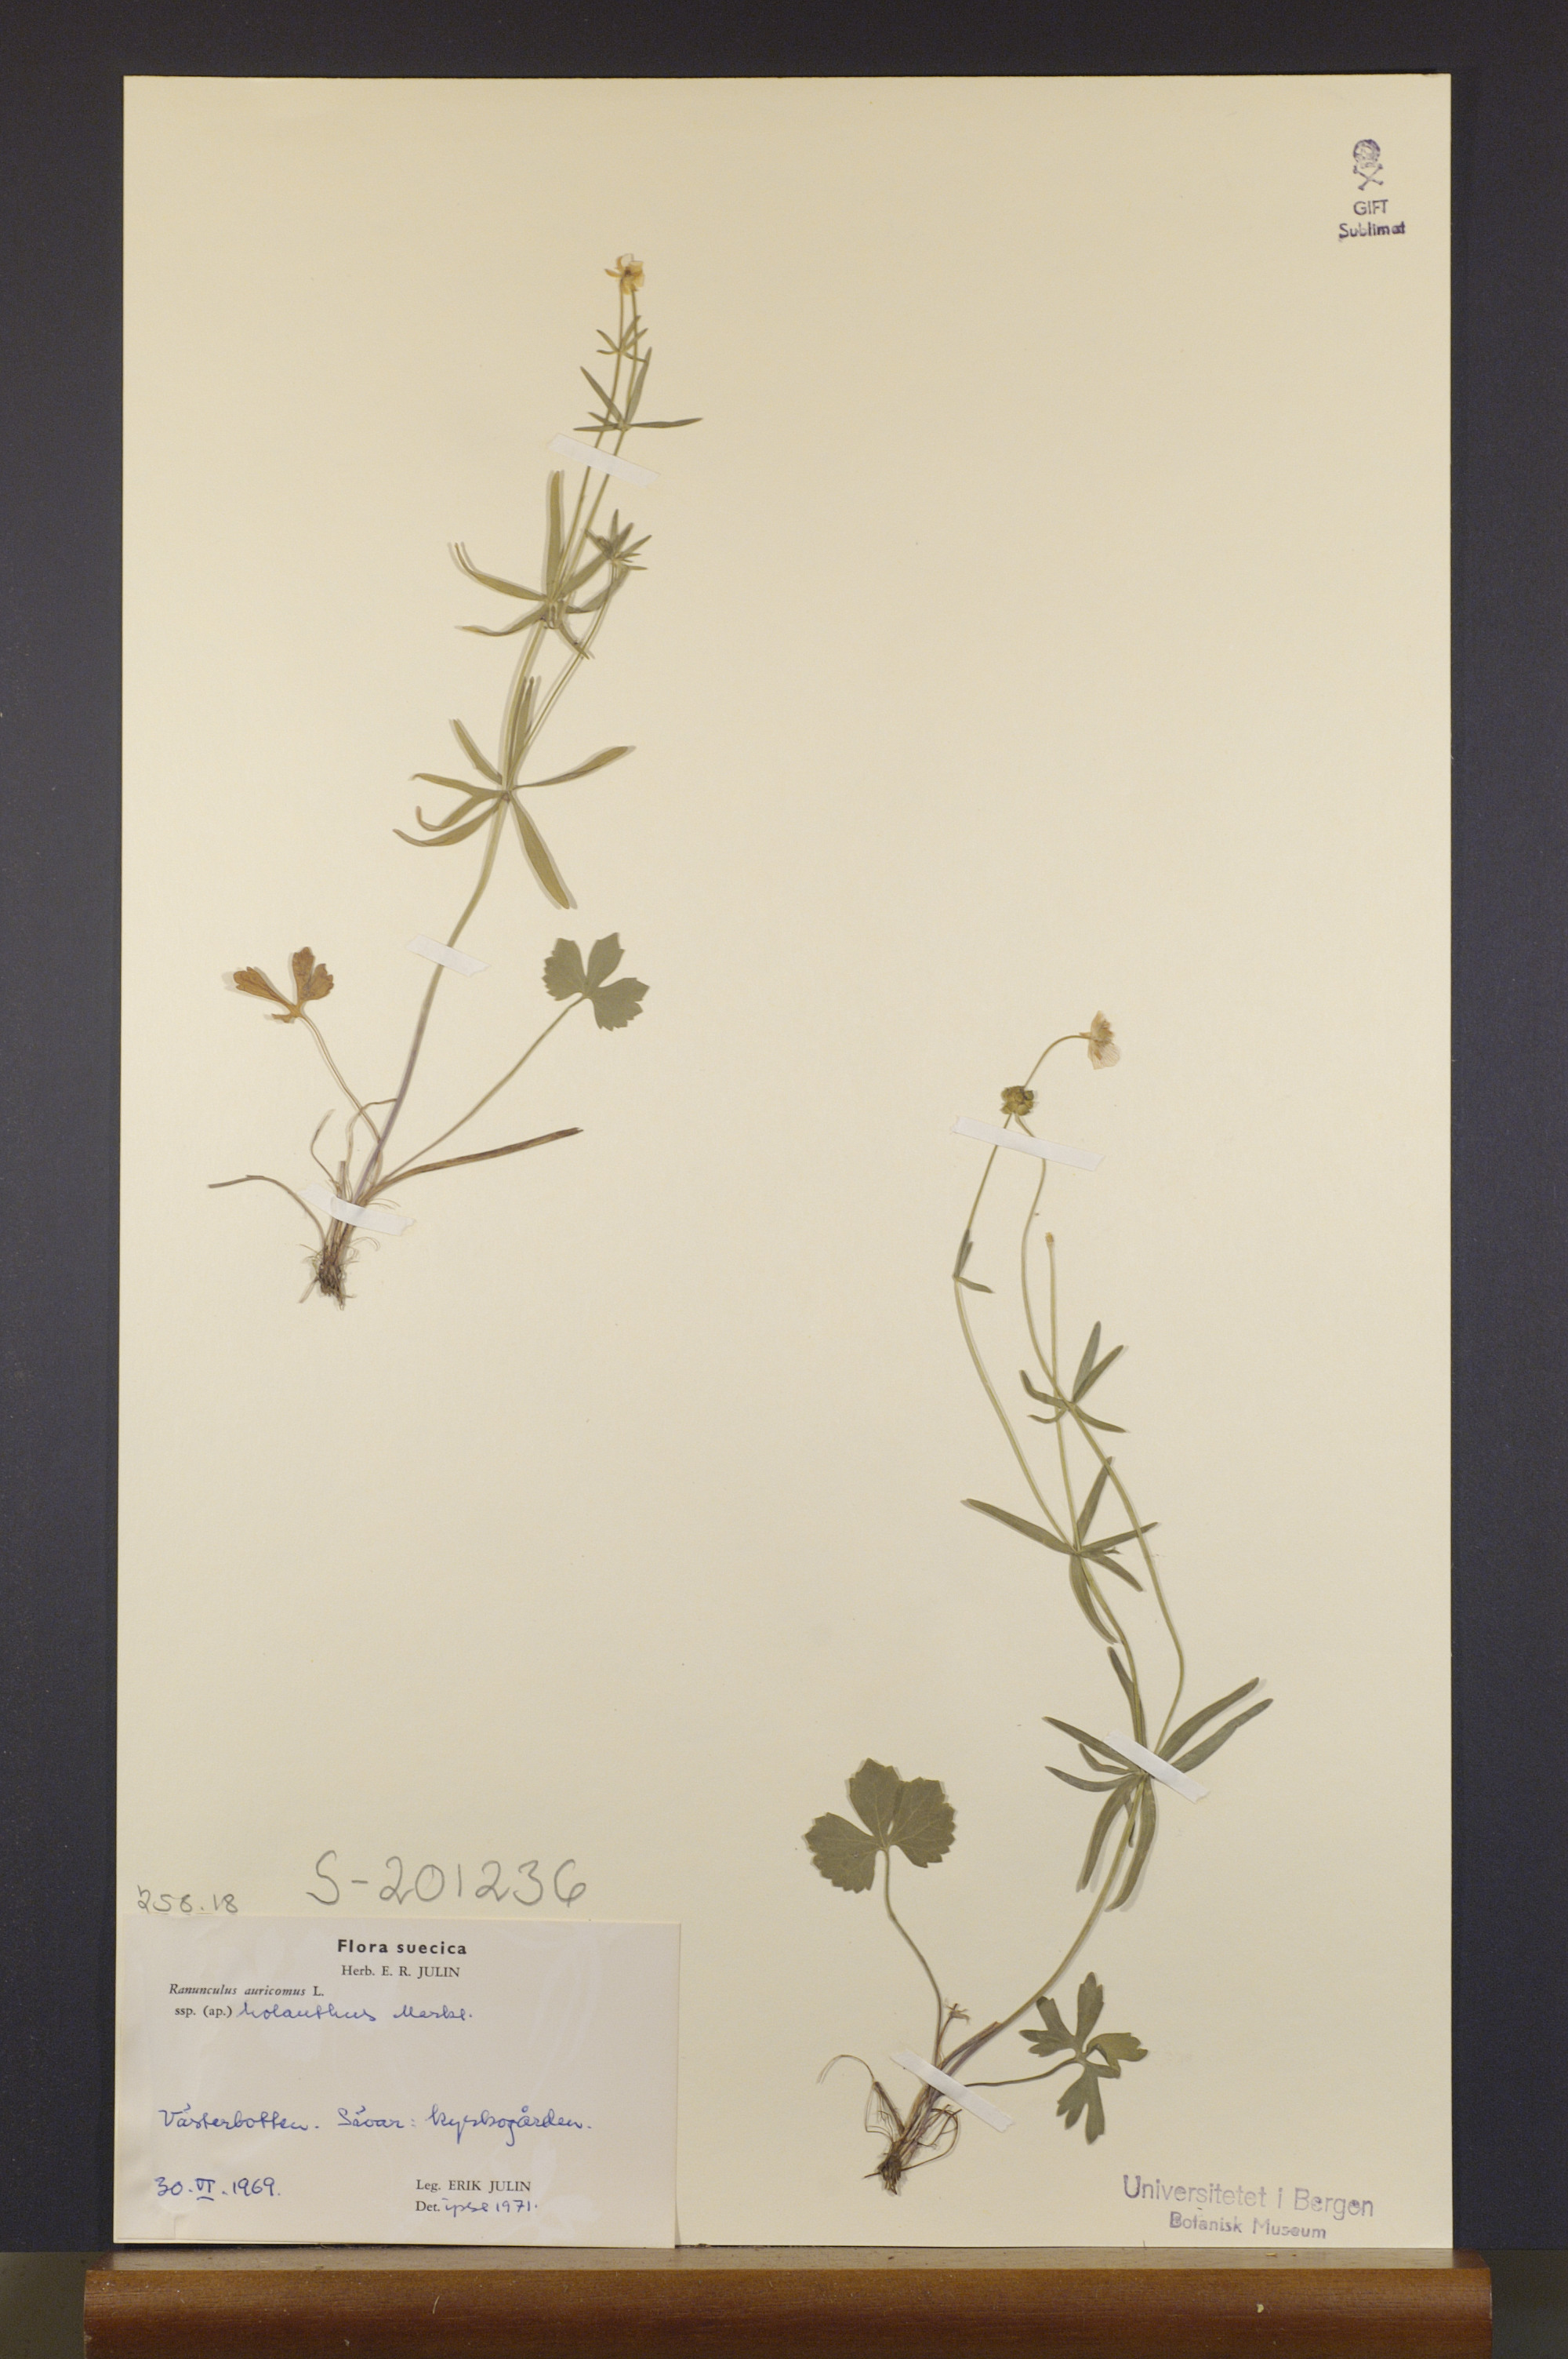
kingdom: Plantae
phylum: Tracheophyta
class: Magnoliopsida
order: Ranunculales
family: Ranunculaceae
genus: Ranunculus
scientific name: Ranunculus holanthus
